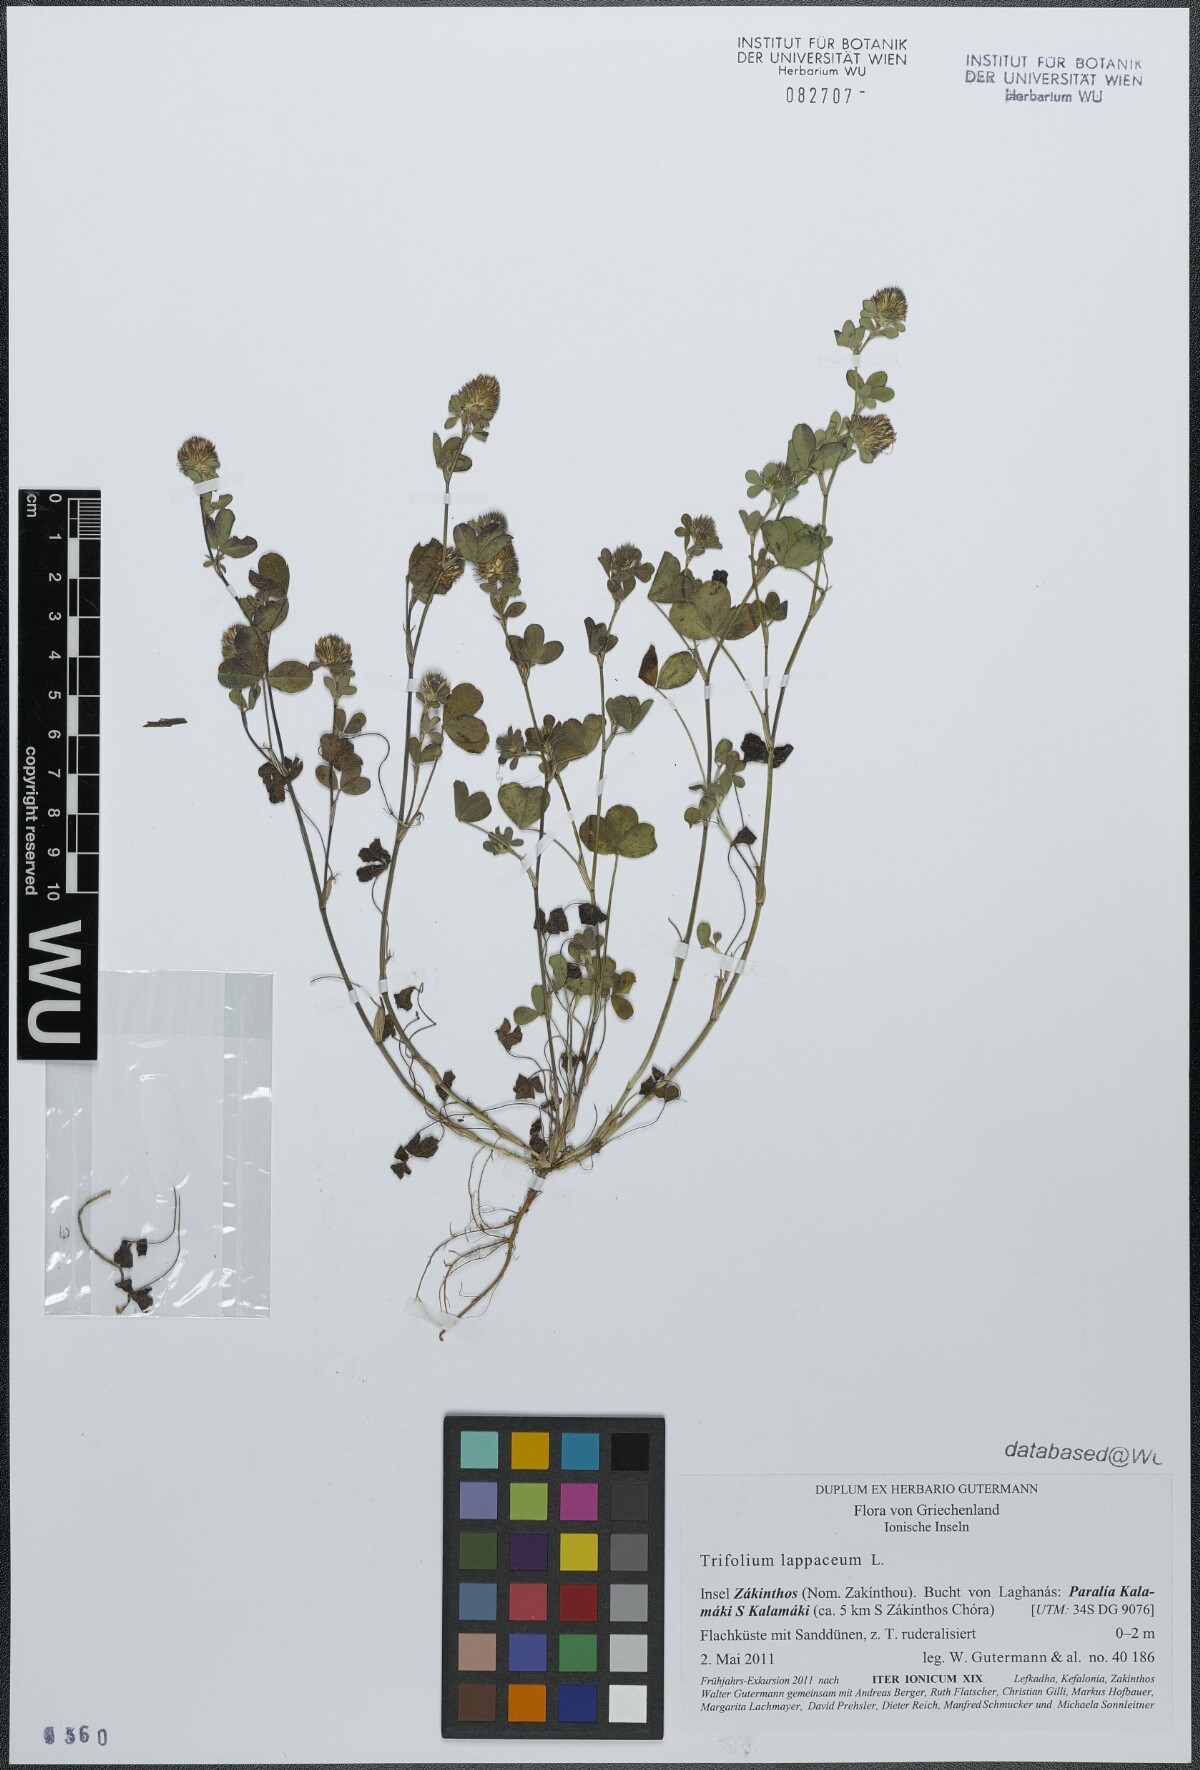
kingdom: Plantae
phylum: Tracheophyta
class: Magnoliopsida
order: Fabales
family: Fabaceae
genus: Trifolium
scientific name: Trifolium lappaceum
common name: Bur clover
